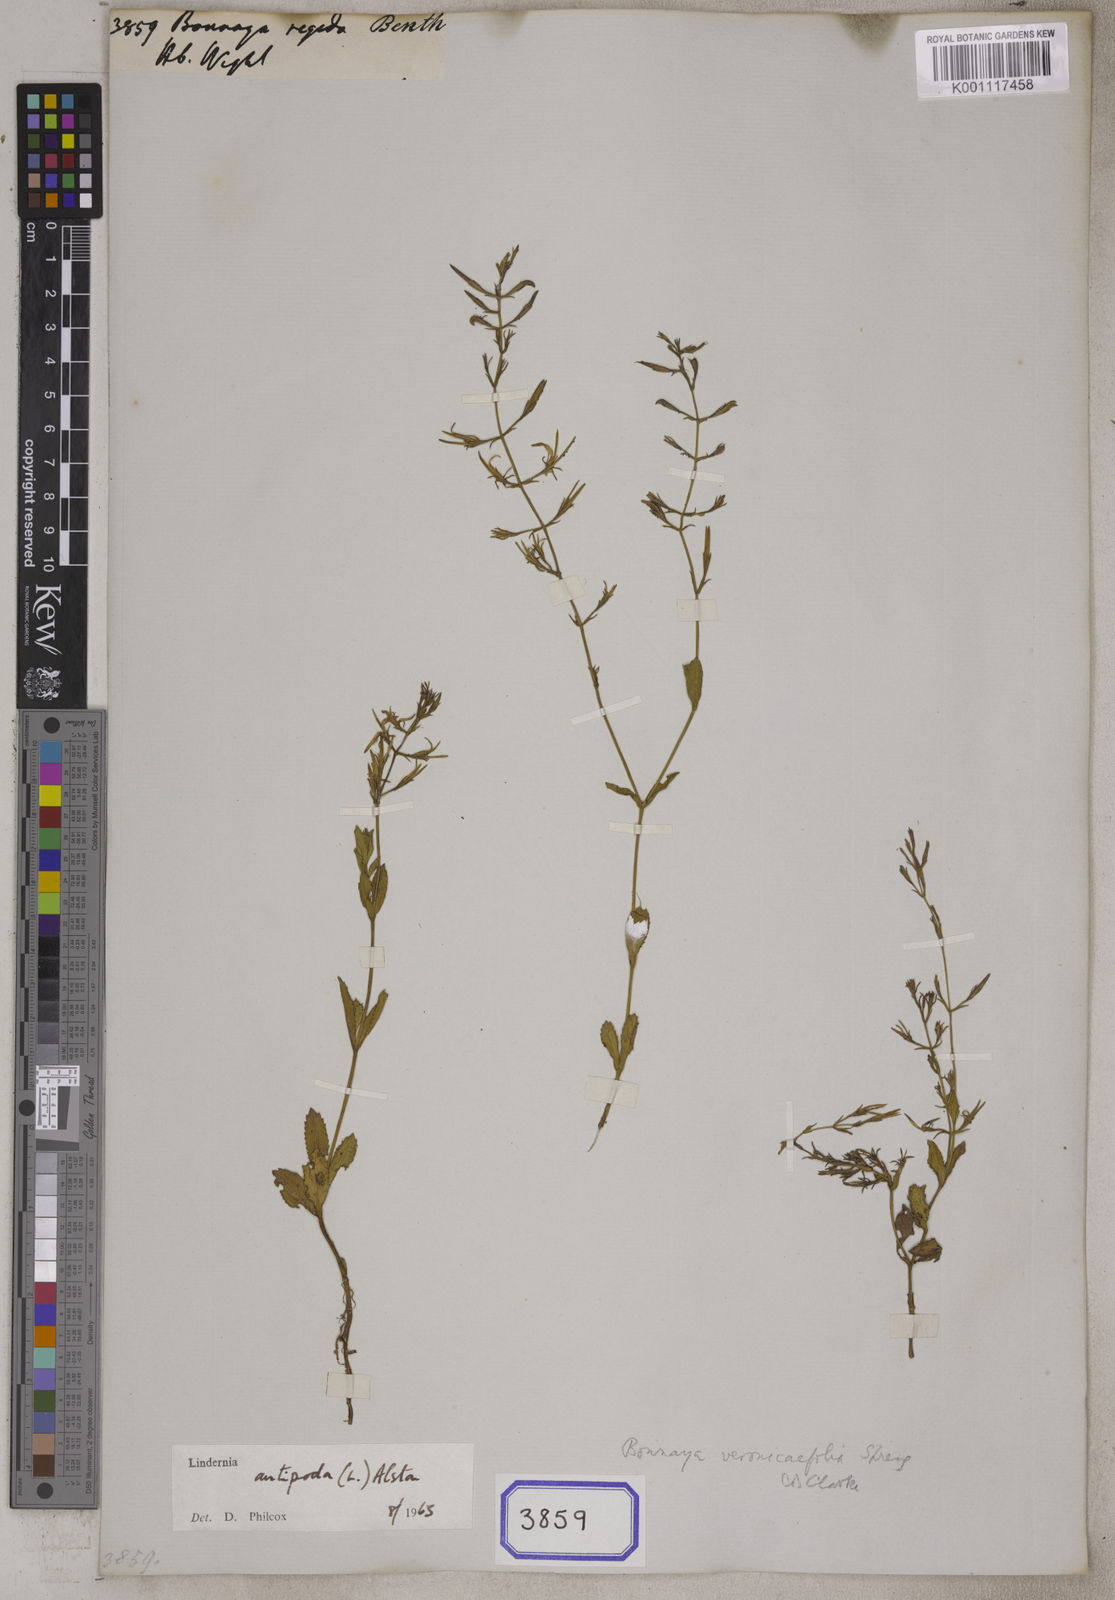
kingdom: Plantae
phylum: Tracheophyta
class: Magnoliopsida
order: Lamiales
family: Linderniaceae
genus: Bonnaya
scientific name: Bonnaya
